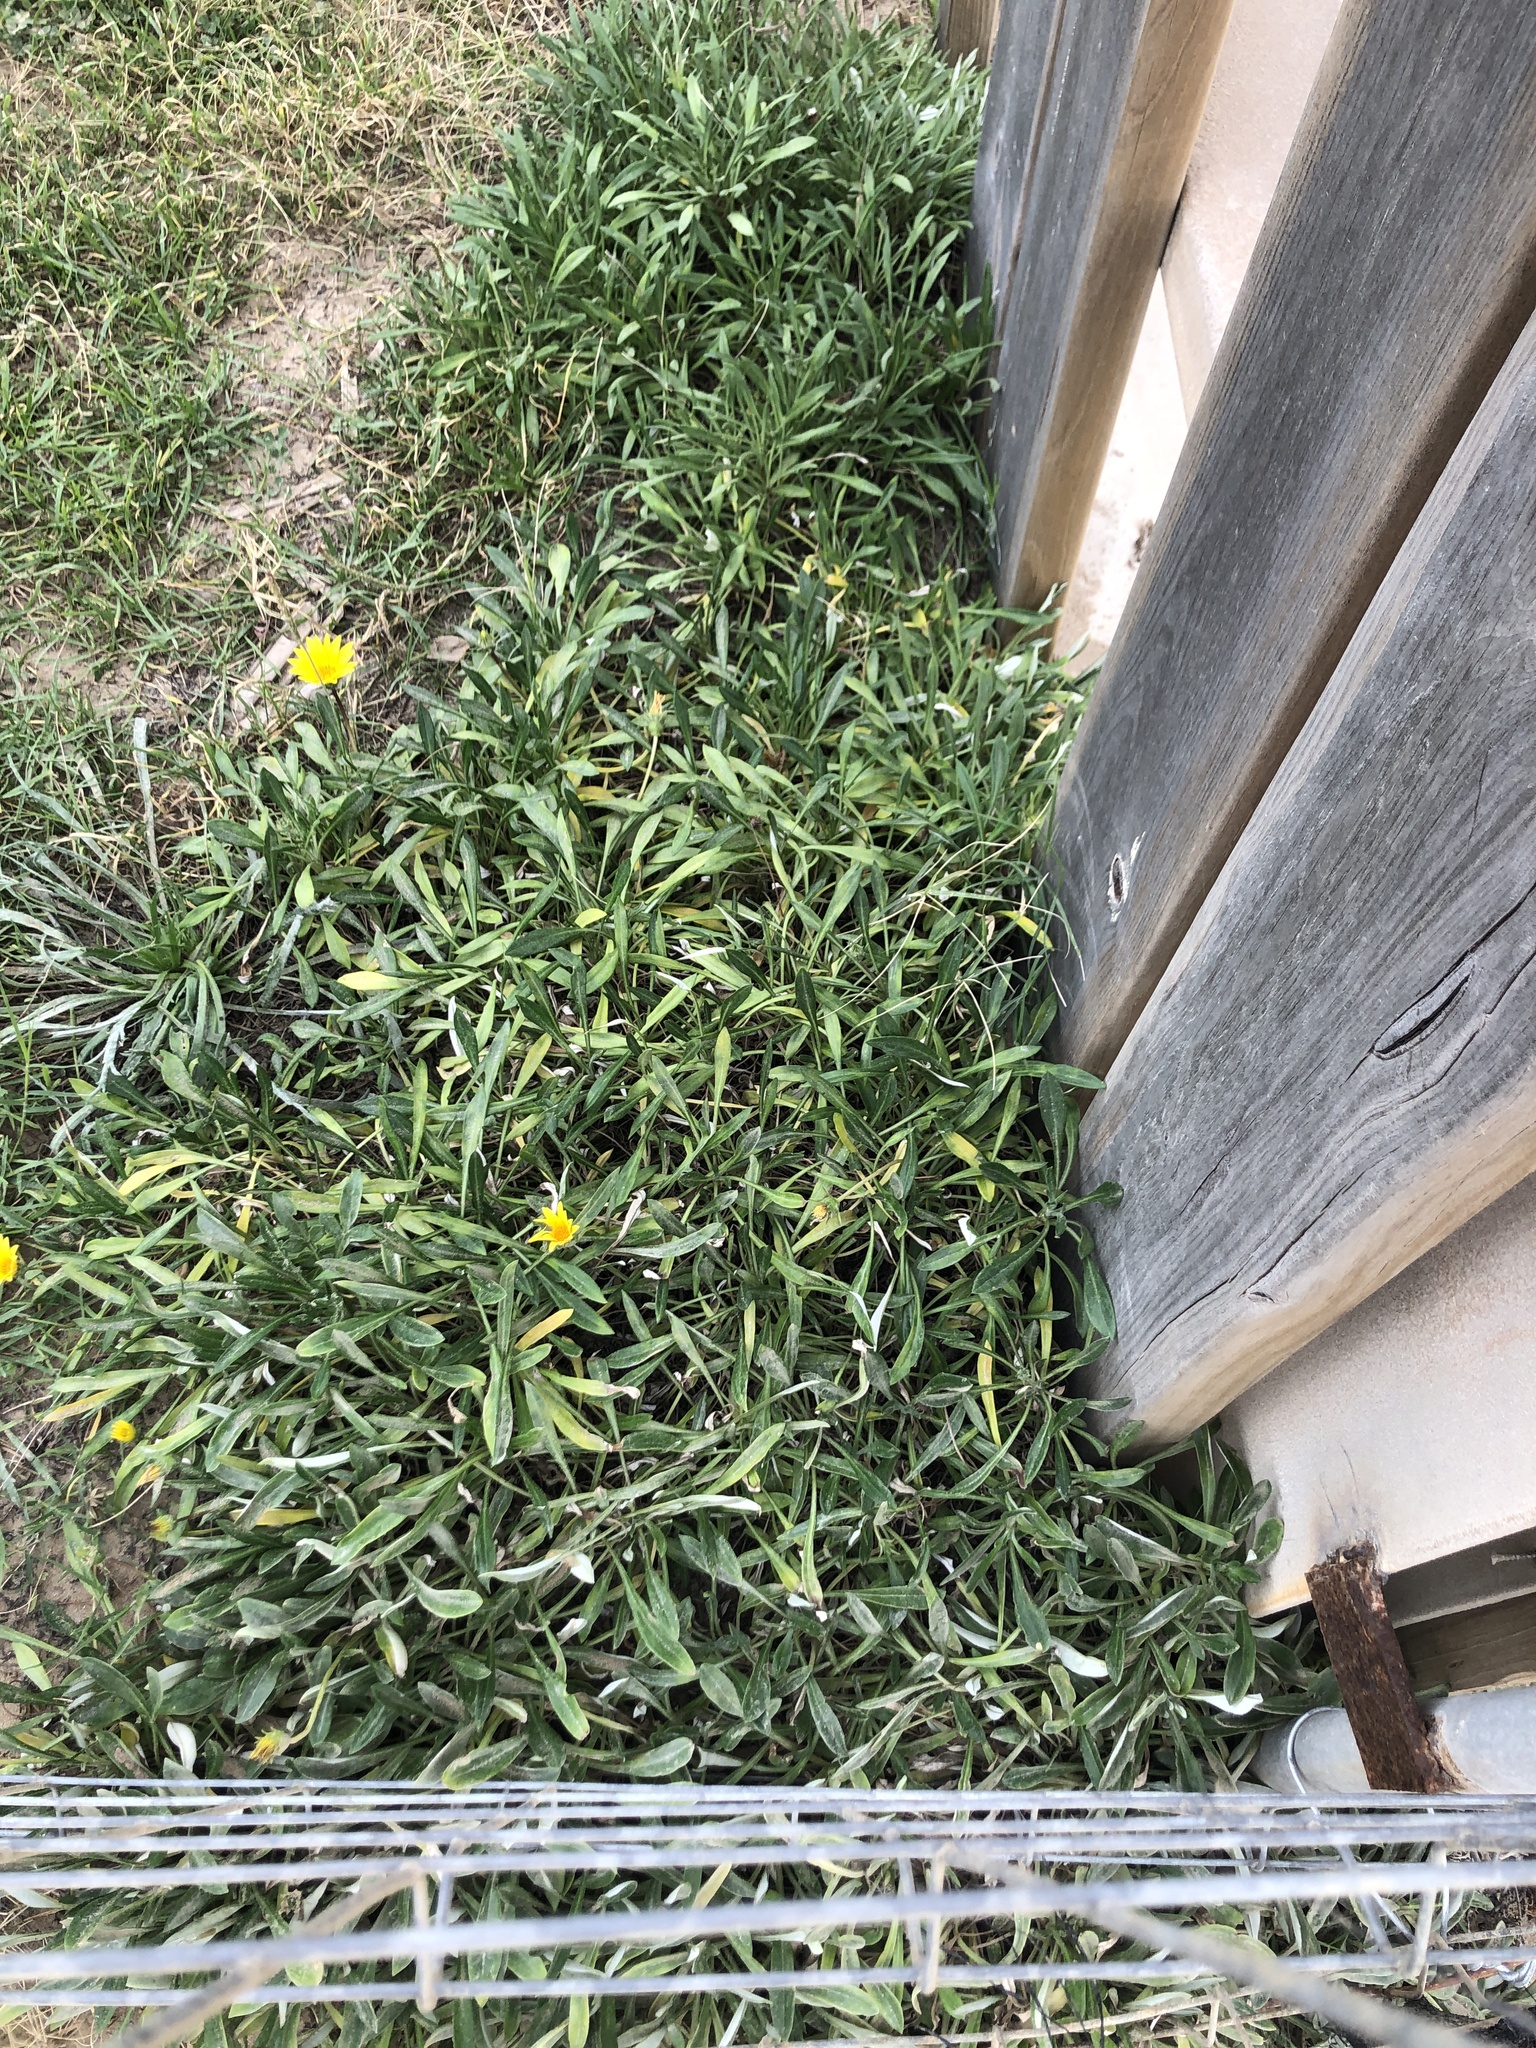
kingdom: Plantae
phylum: Tracheophyta
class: Magnoliopsida
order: Asterales
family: Asteraceae
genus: Gazania
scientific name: Gazania rigens
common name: Treasureflower
